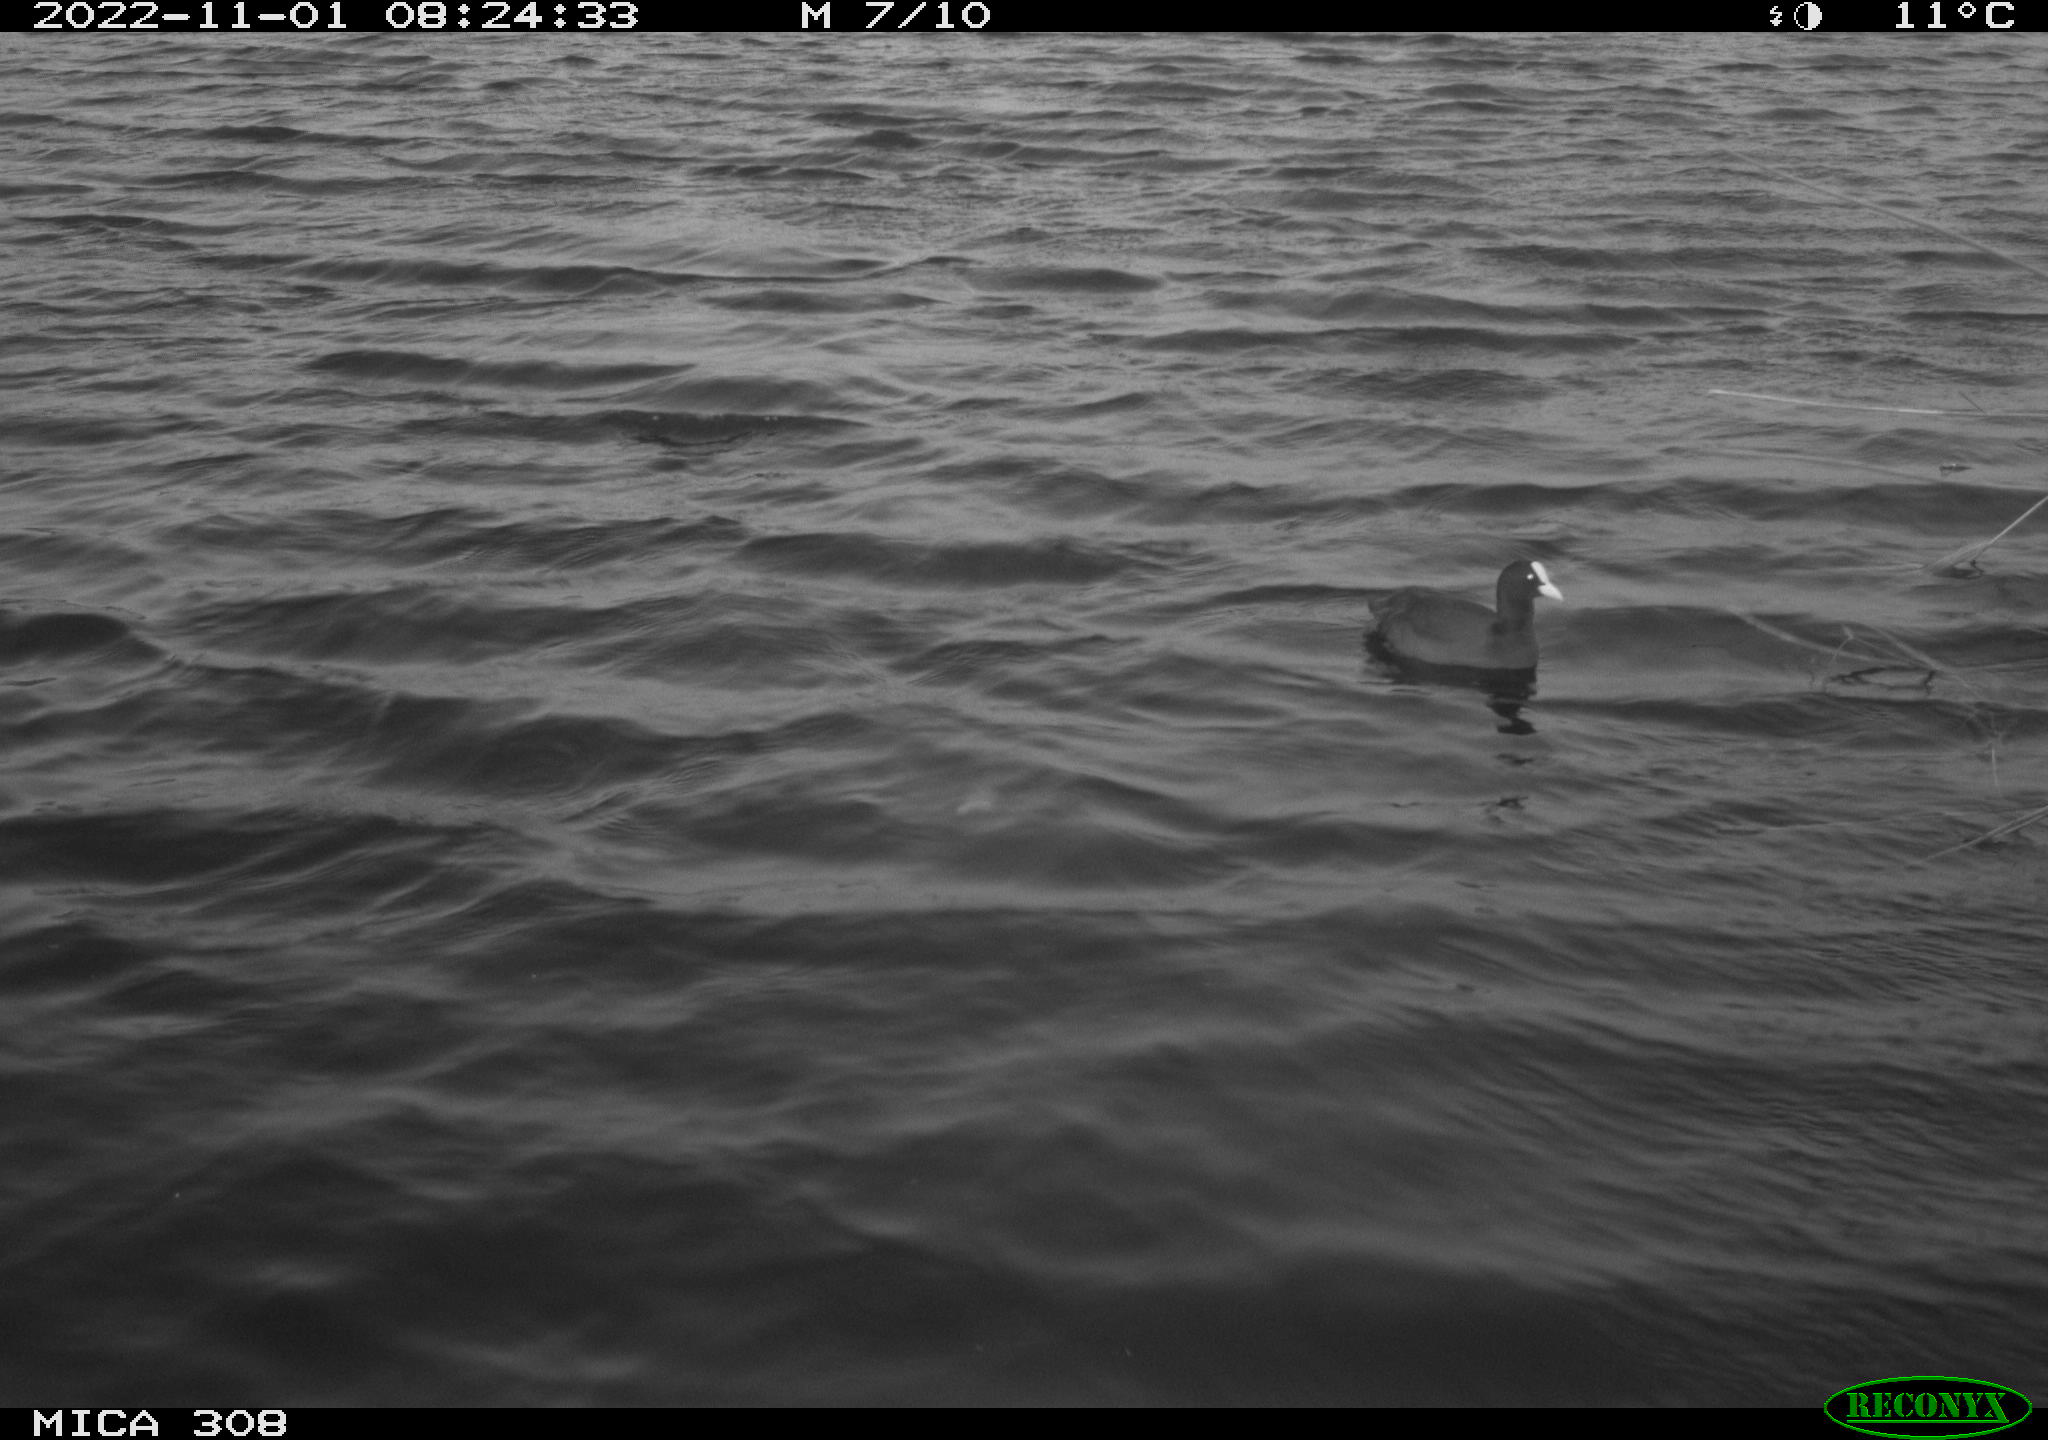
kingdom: Animalia
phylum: Chordata
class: Aves
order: Gruiformes
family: Rallidae
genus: Fulica
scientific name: Fulica atra
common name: Eurasian coot
